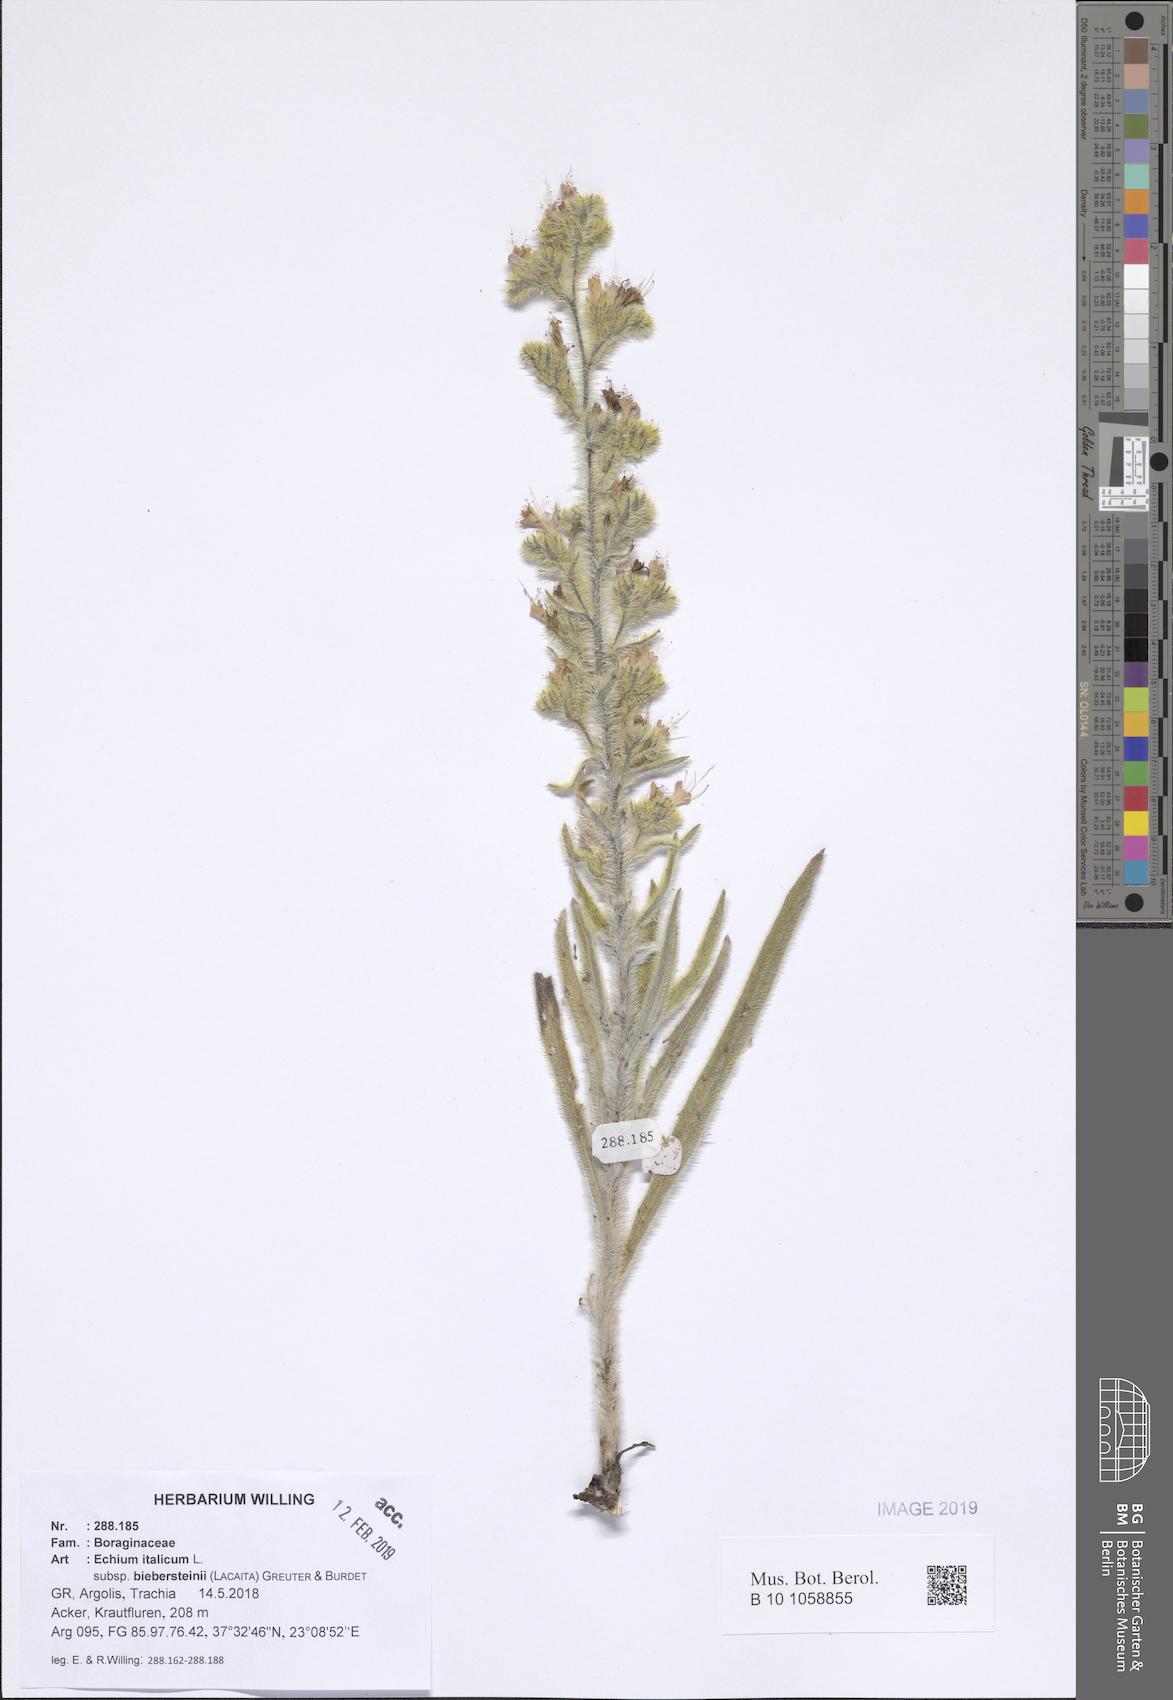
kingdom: Plantae
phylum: Tracheophyta
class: Magnoliopsida
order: Boraginales
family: Boraginaceae
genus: Echium
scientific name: Echium italicum
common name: Italian viper's bugloss
